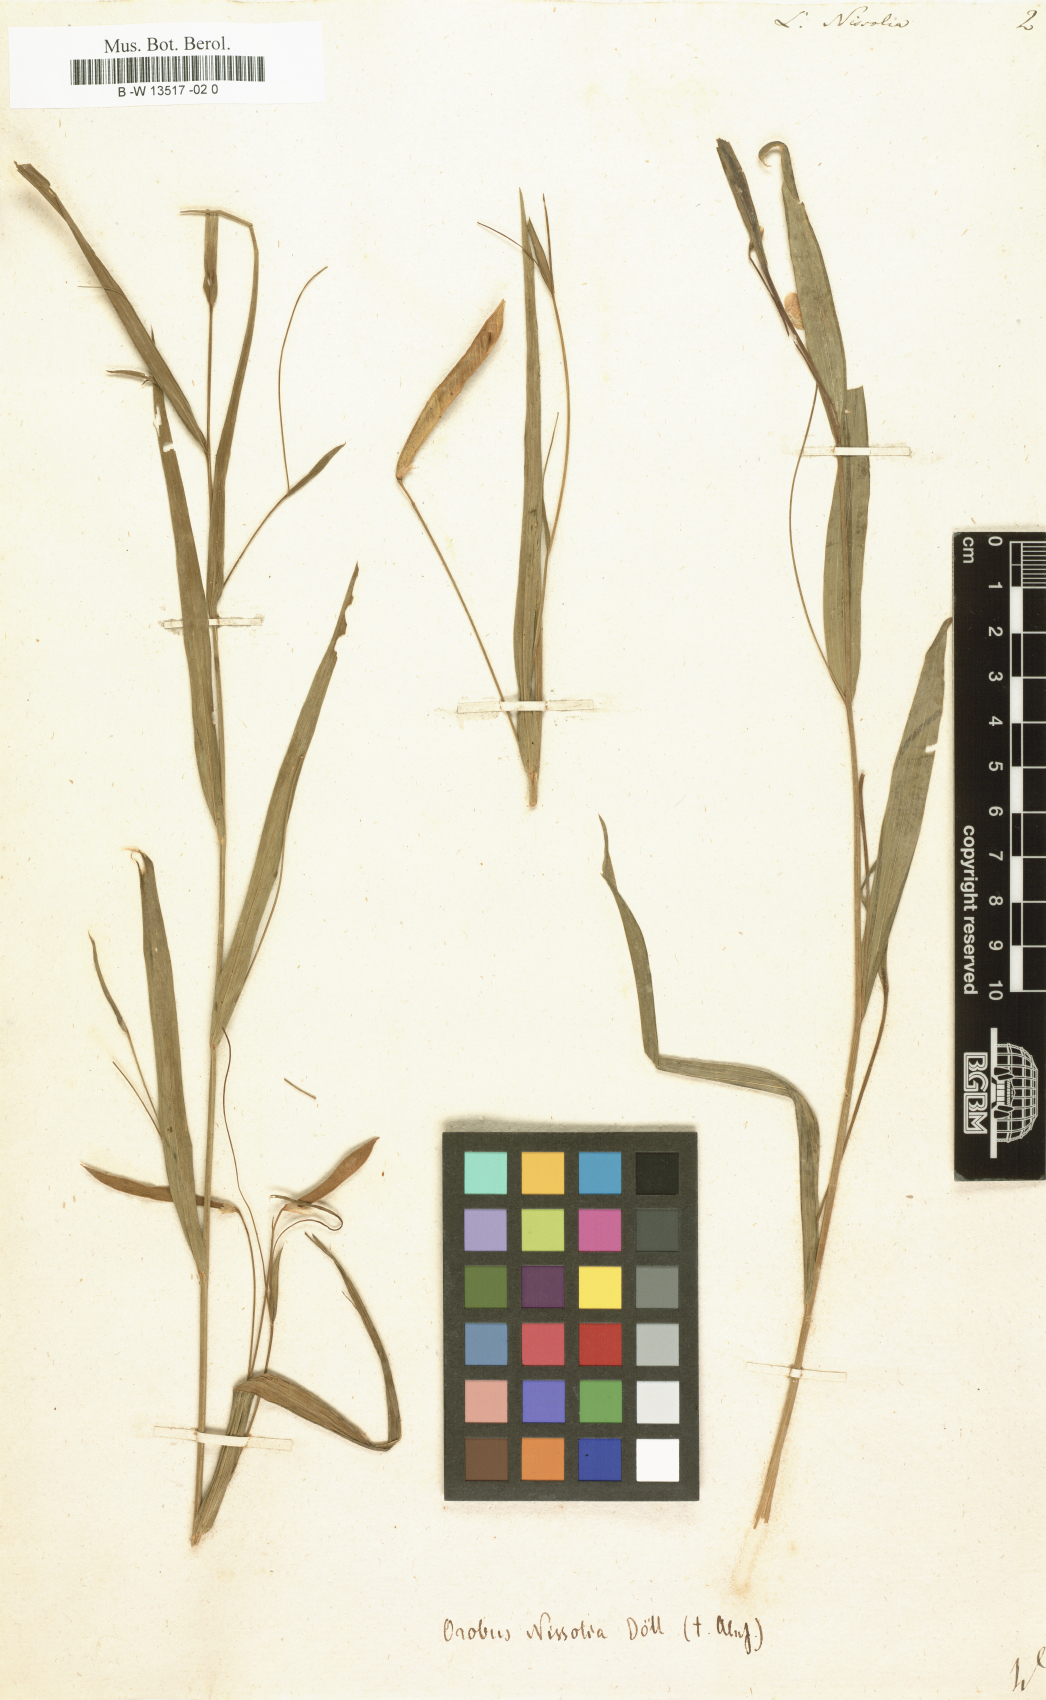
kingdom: Plantae
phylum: Tracheophyta
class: Magnoliopsida
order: Fabales
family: Fabaceae
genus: Lathyrus
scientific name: Lathyrus nissolia
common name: Grass vetchling
